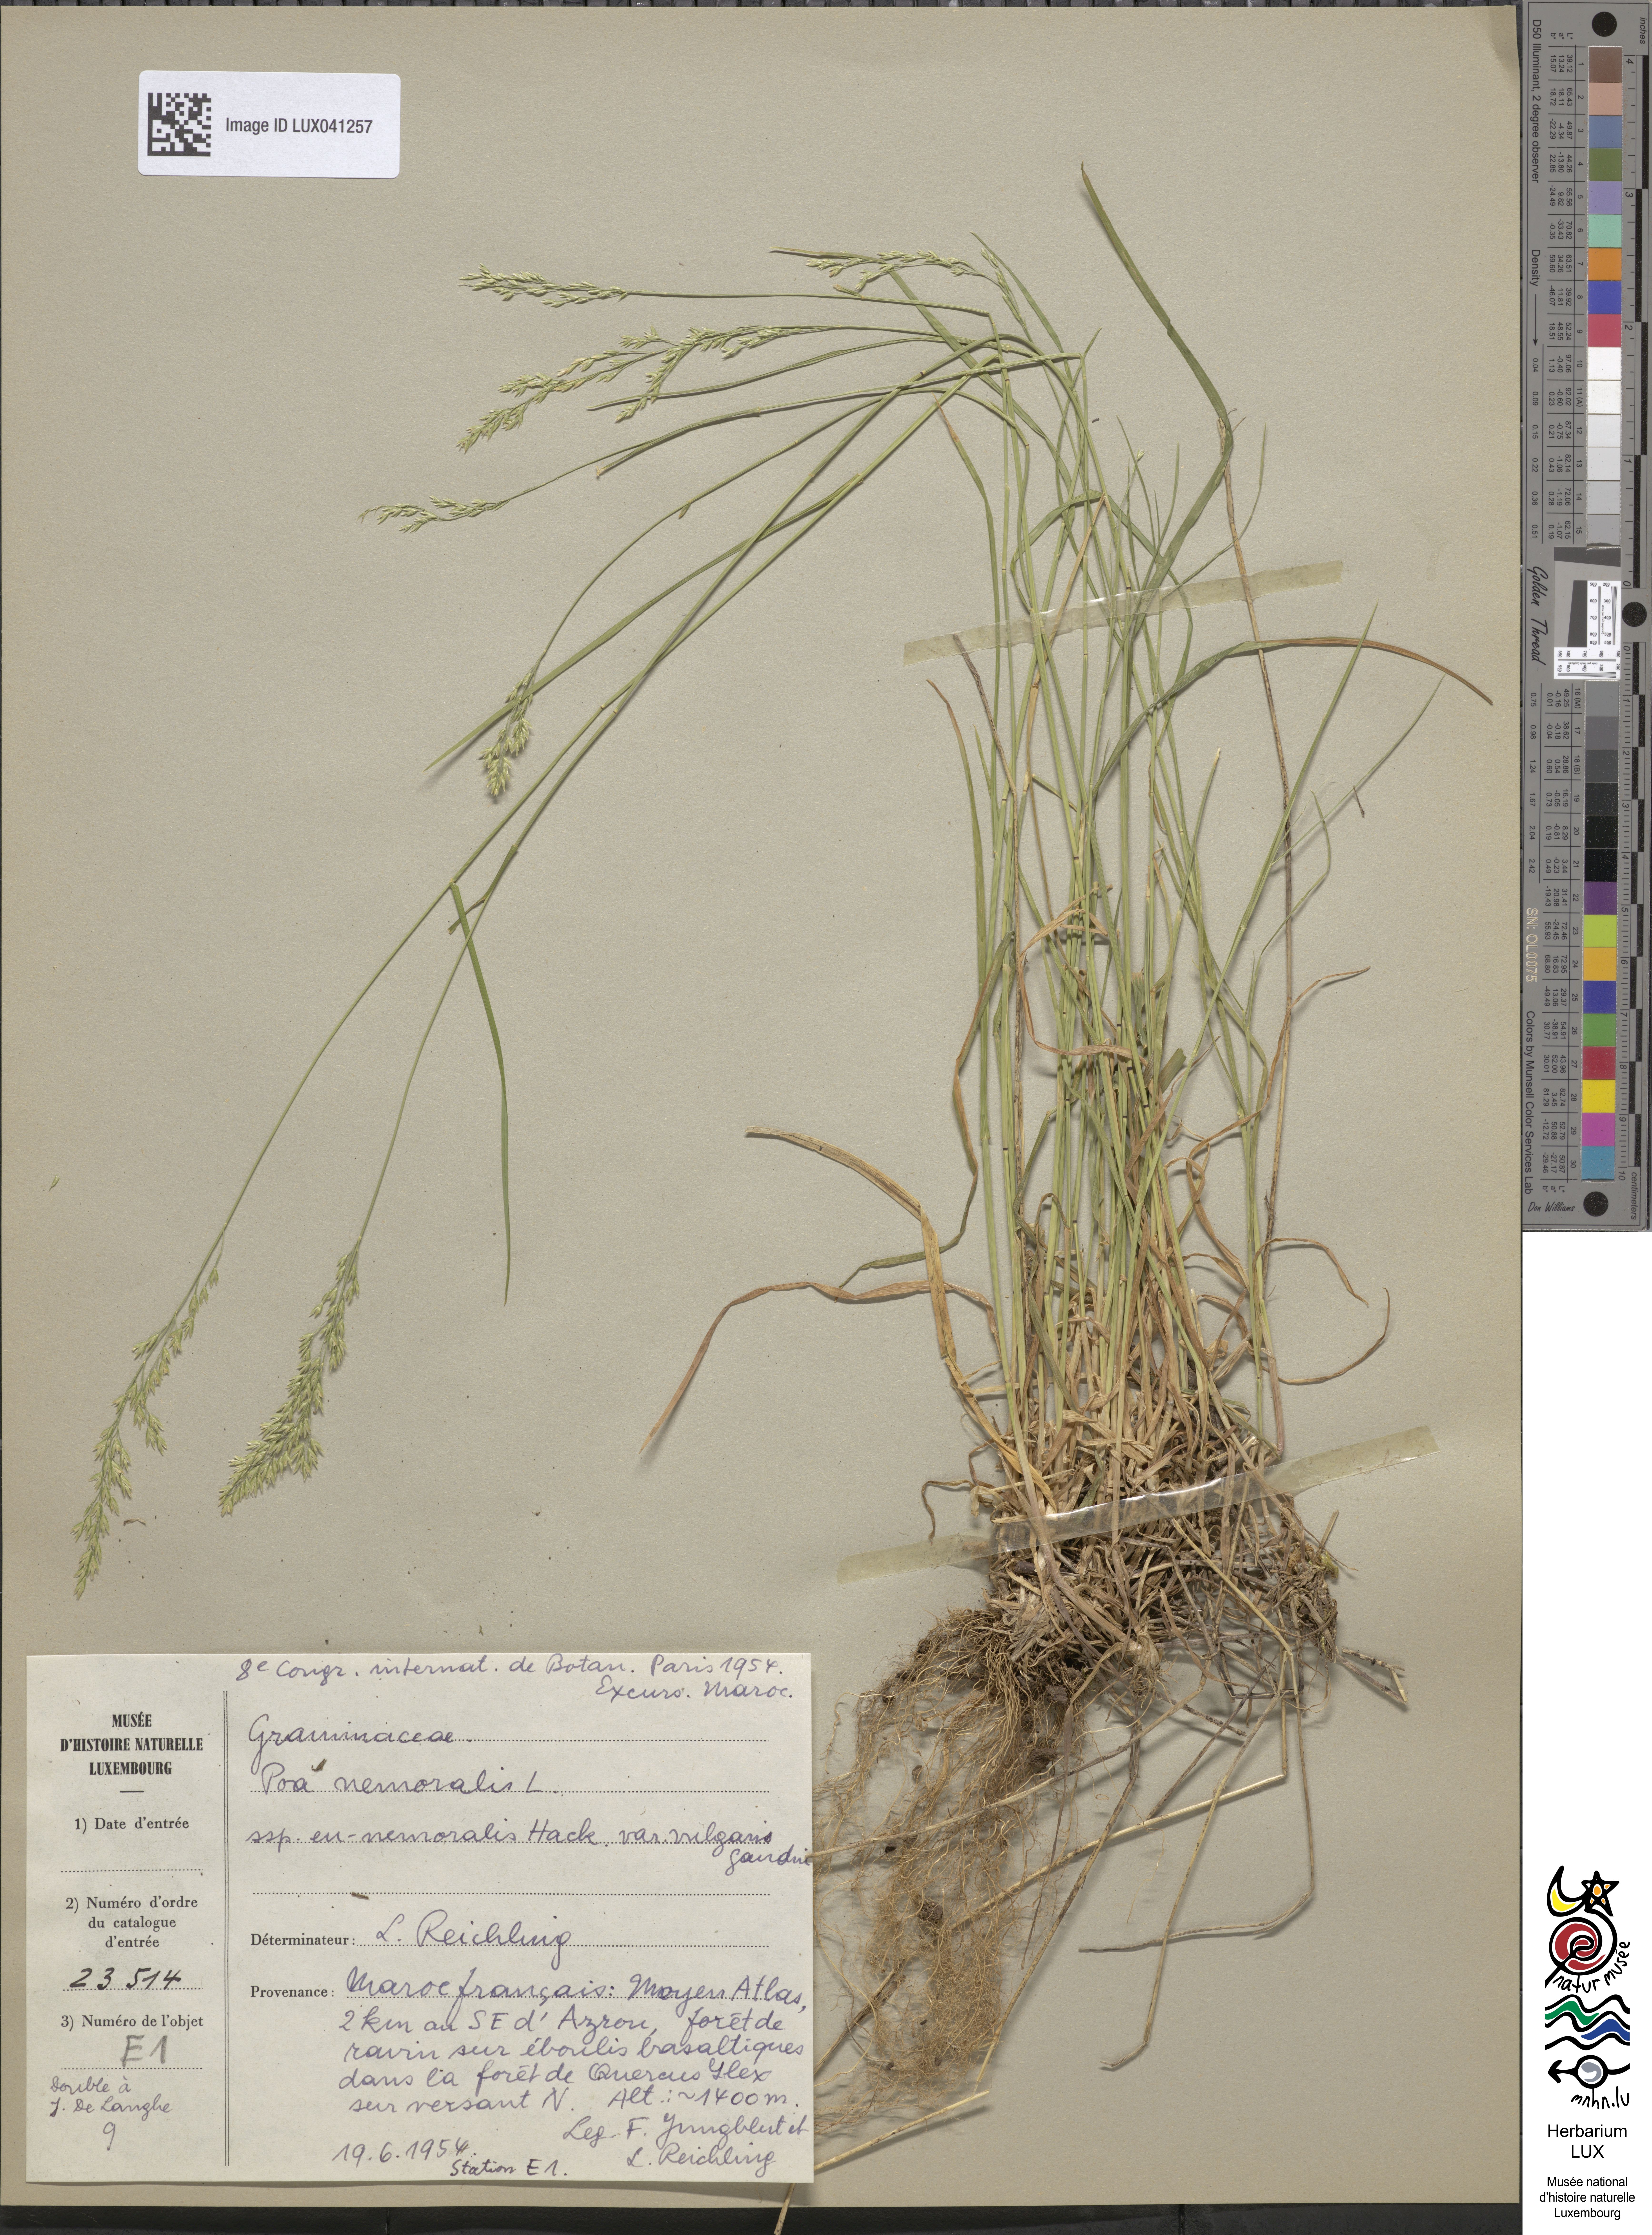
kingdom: Plantae
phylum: Tracheophyta
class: Liliopsida
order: Poales
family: Poaceae
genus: Poa
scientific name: Poa nemoralis
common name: Wood bluegrass
